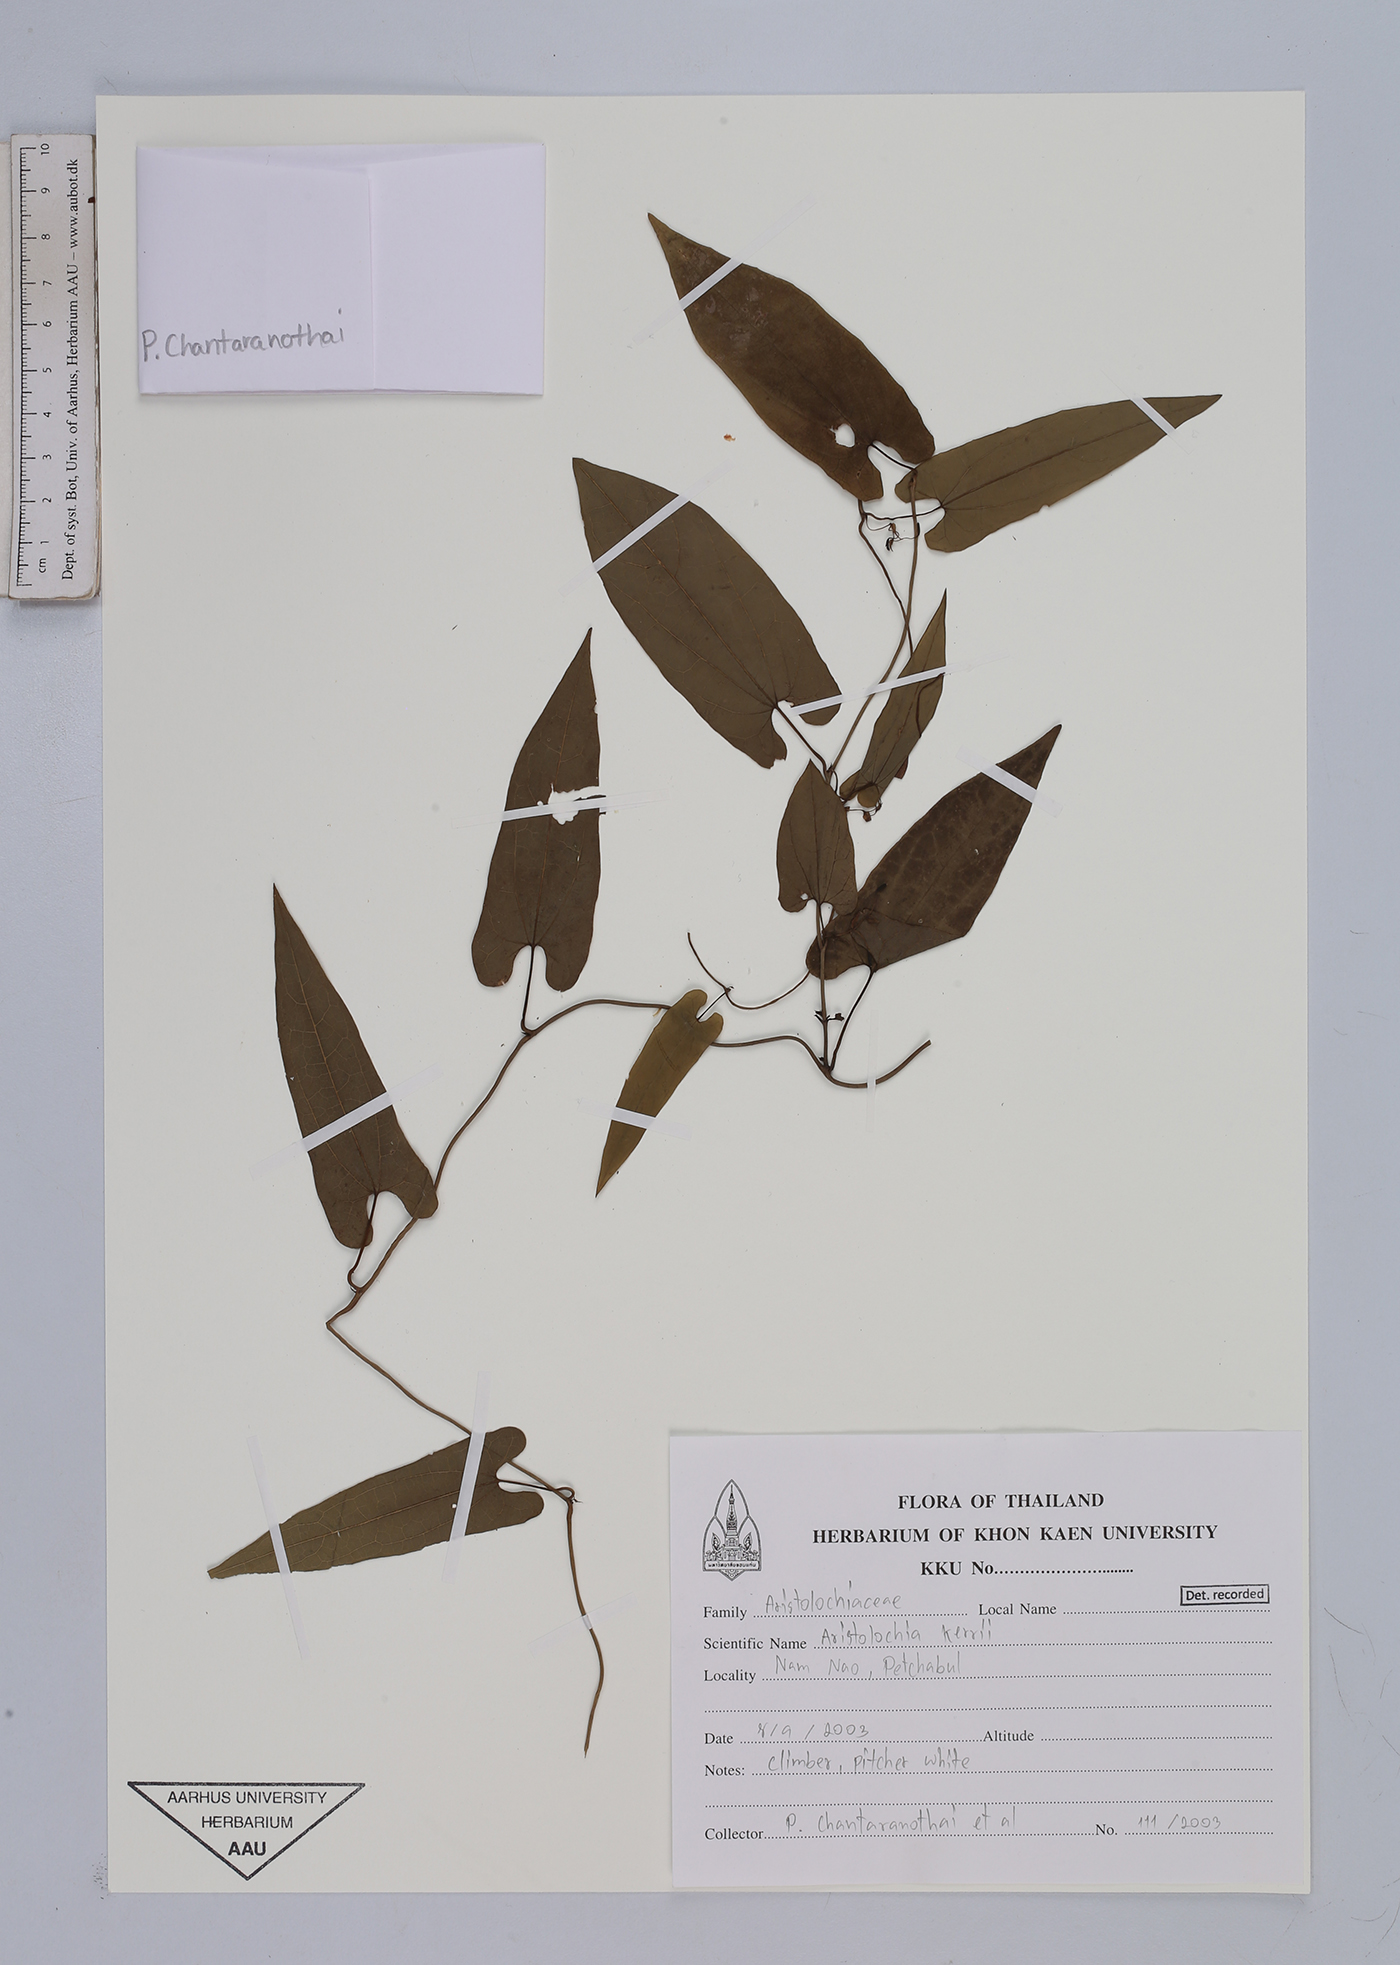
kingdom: Plantae
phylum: Tracheophyta
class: Magnoliopsida
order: Piperales
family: Aristolochiaceae
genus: Aristolochia
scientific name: Aristolochia cambodiana
